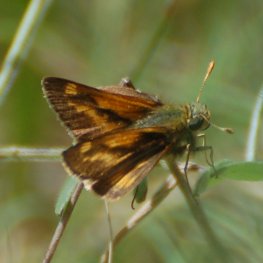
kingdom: Animalia
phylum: Arthropoda
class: Insecta
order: Lepidoptera
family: Hesperiidae
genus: Polites
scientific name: Polites coras
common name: Peck's Skipper
